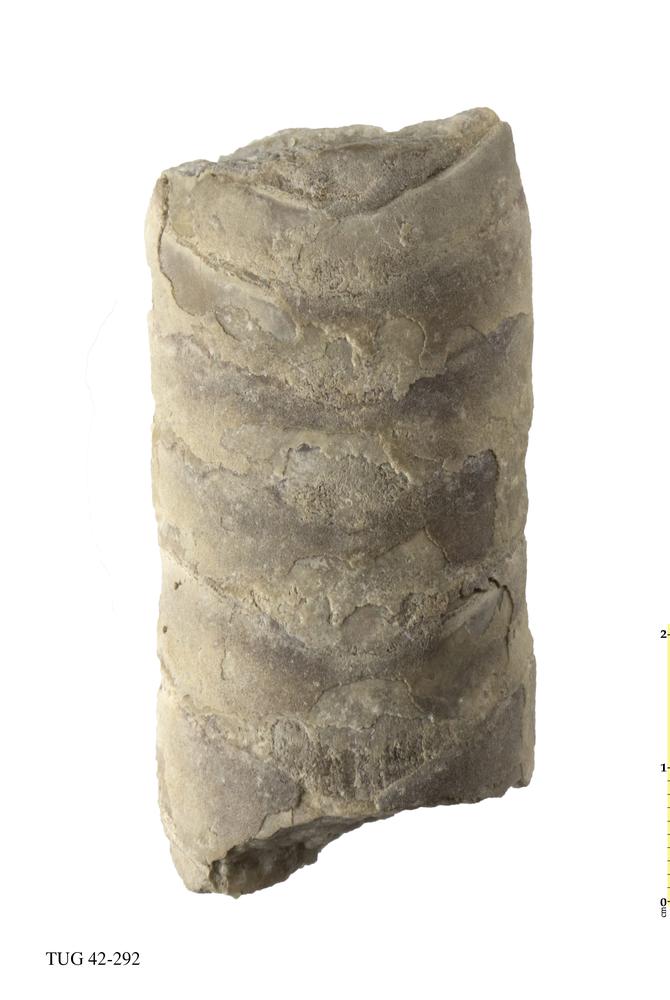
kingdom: Animalia
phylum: Mollusca
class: Cephalopoda
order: Orthocerida
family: Orthoceratidae
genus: Orthoceras
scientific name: Orthoceras
